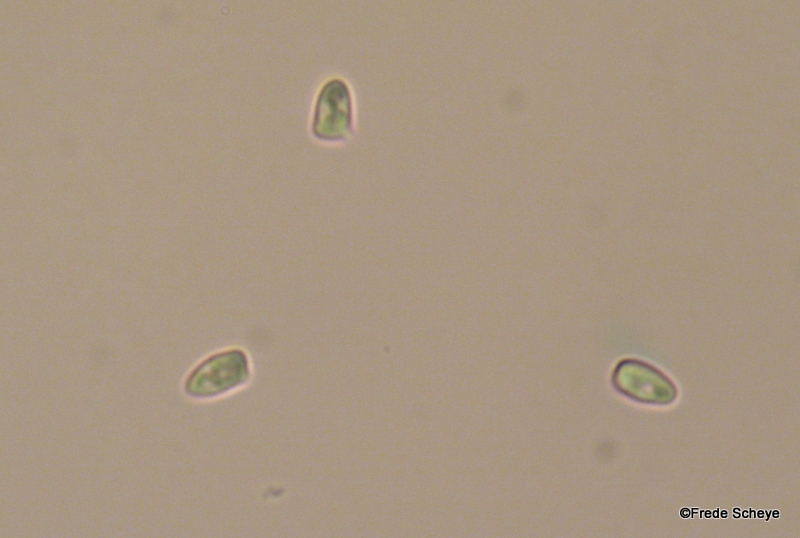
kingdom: Fungi
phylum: Basidiomycota
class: Agaricomycetes
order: Agaricales
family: Agaricaceae
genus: Lepiota
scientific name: Lepiota cristata
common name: stinkende parasolhat
